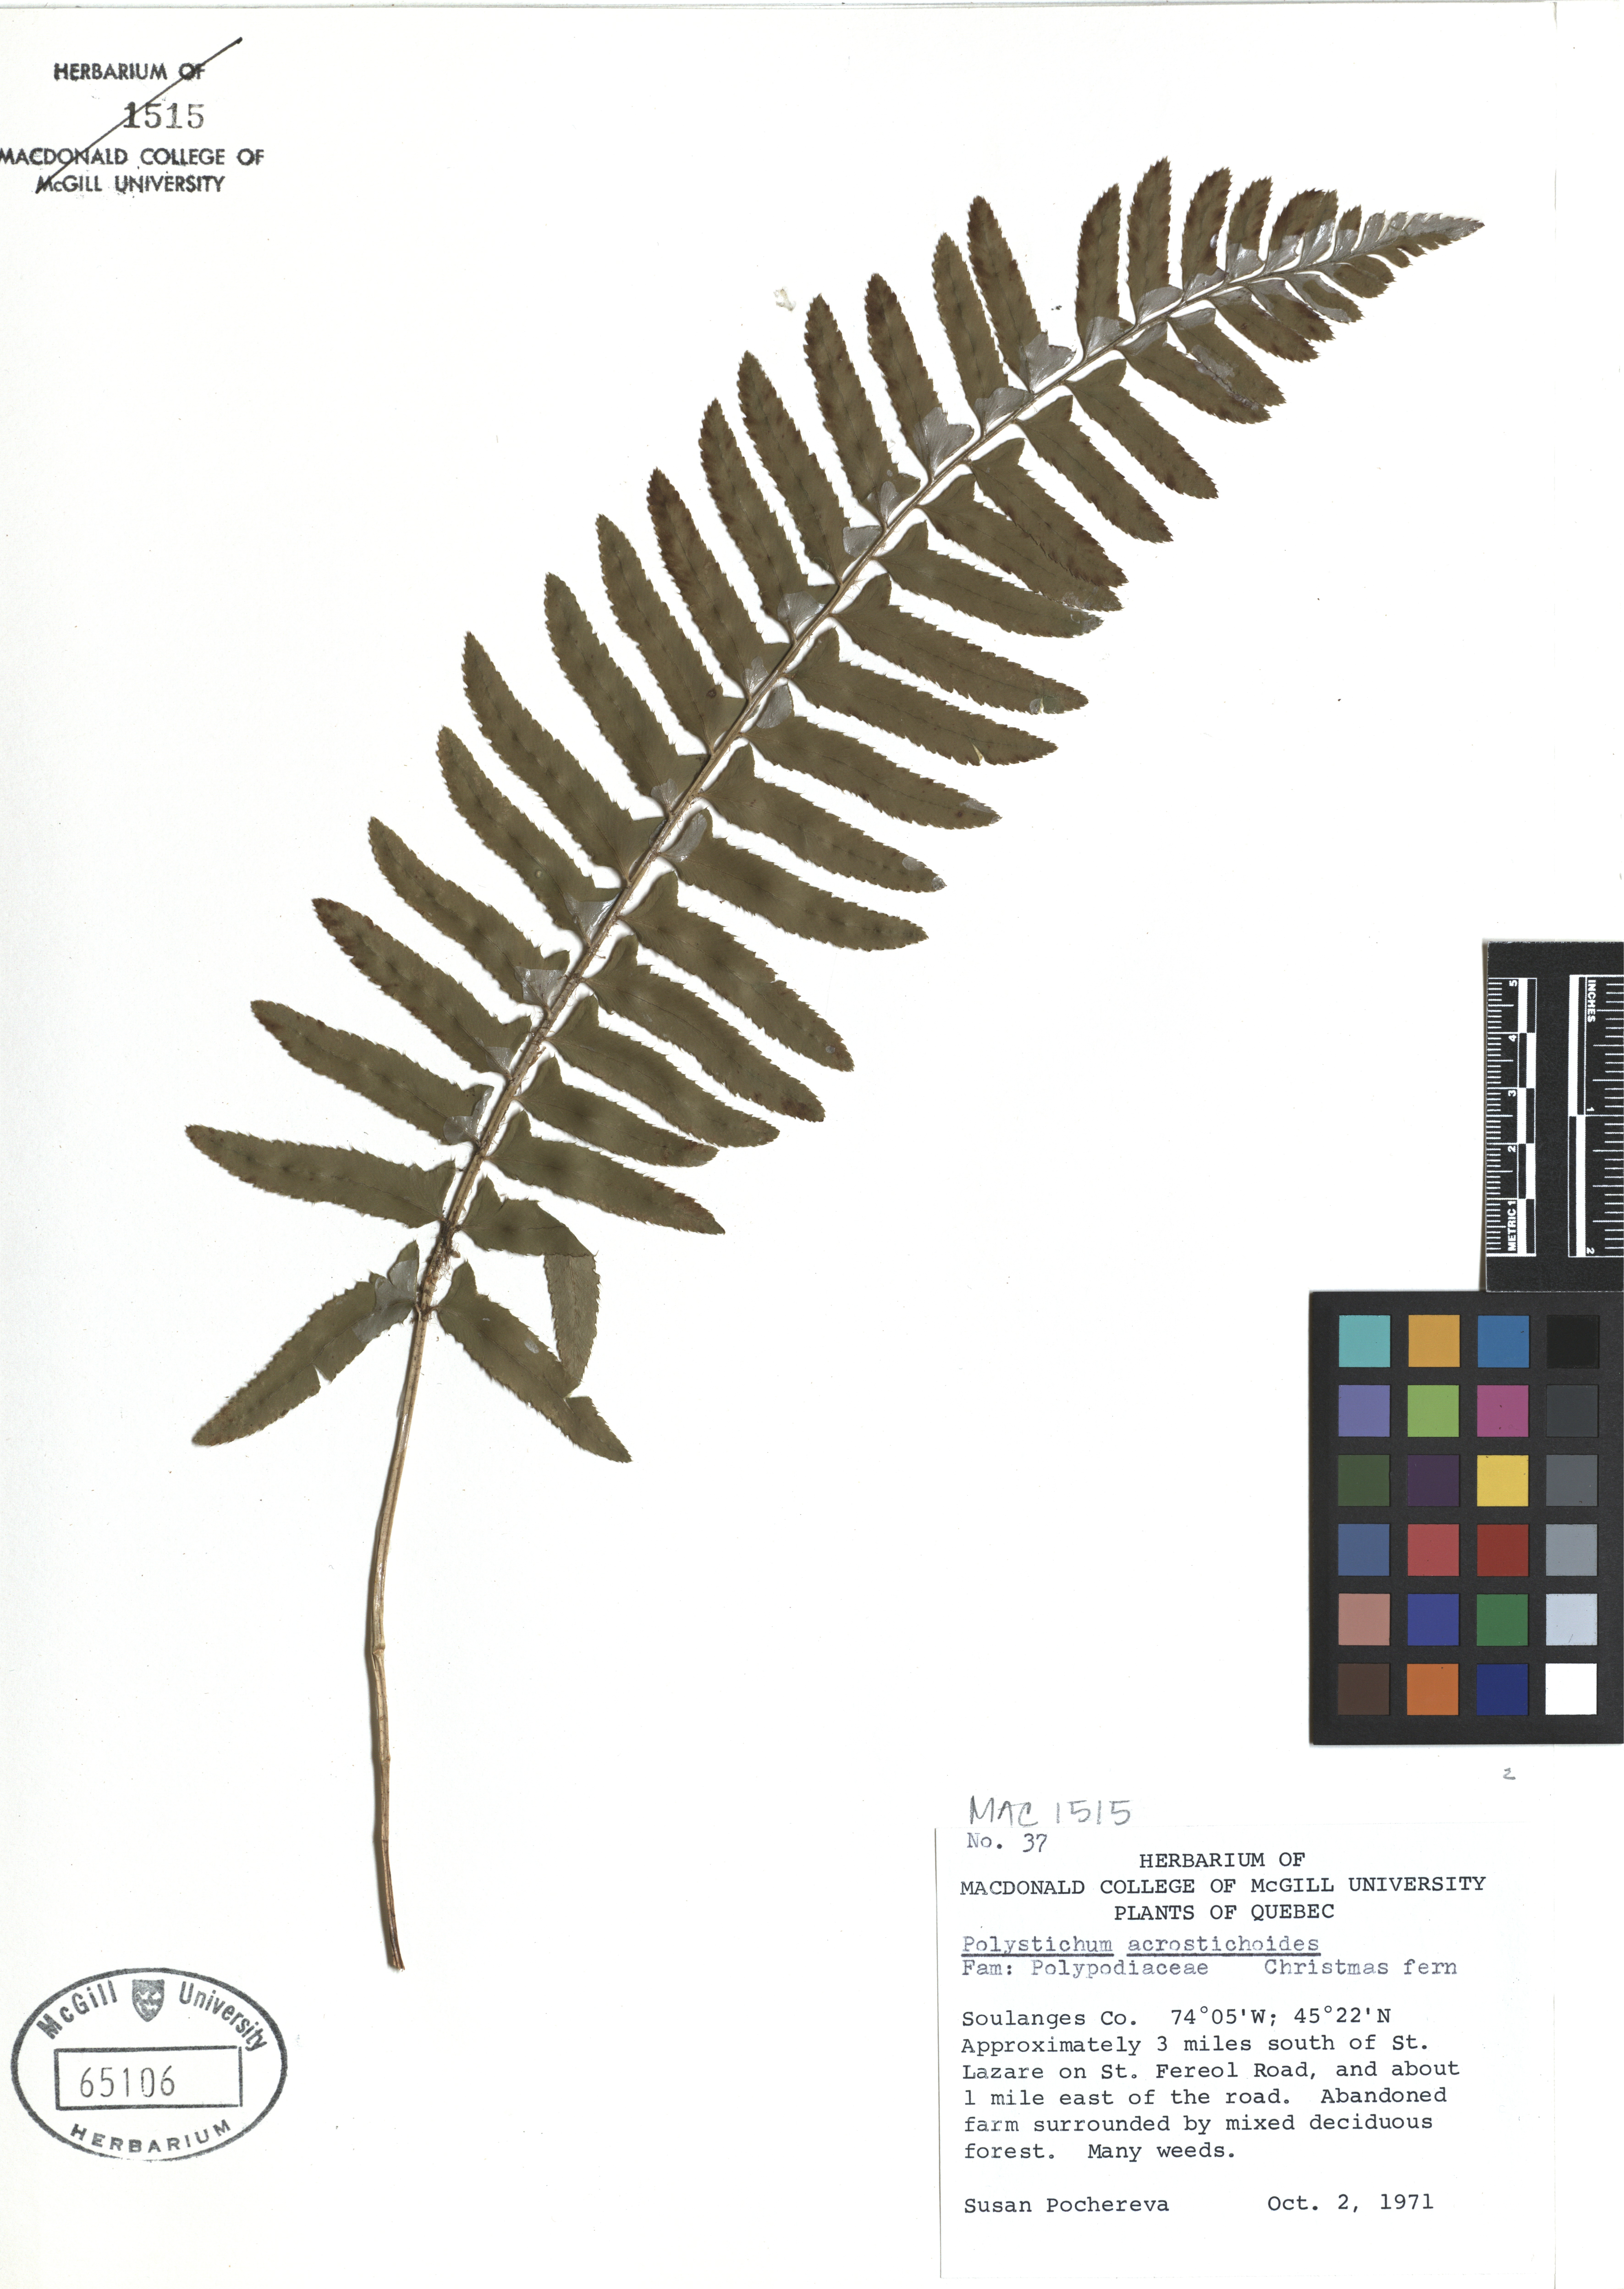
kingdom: Plantae
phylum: Tracheophyta
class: Polypodiopsida
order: Polypodiales
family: Dryopteridaceae
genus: Polystichum
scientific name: Polystichum acrostichoides
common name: Christmas fern
